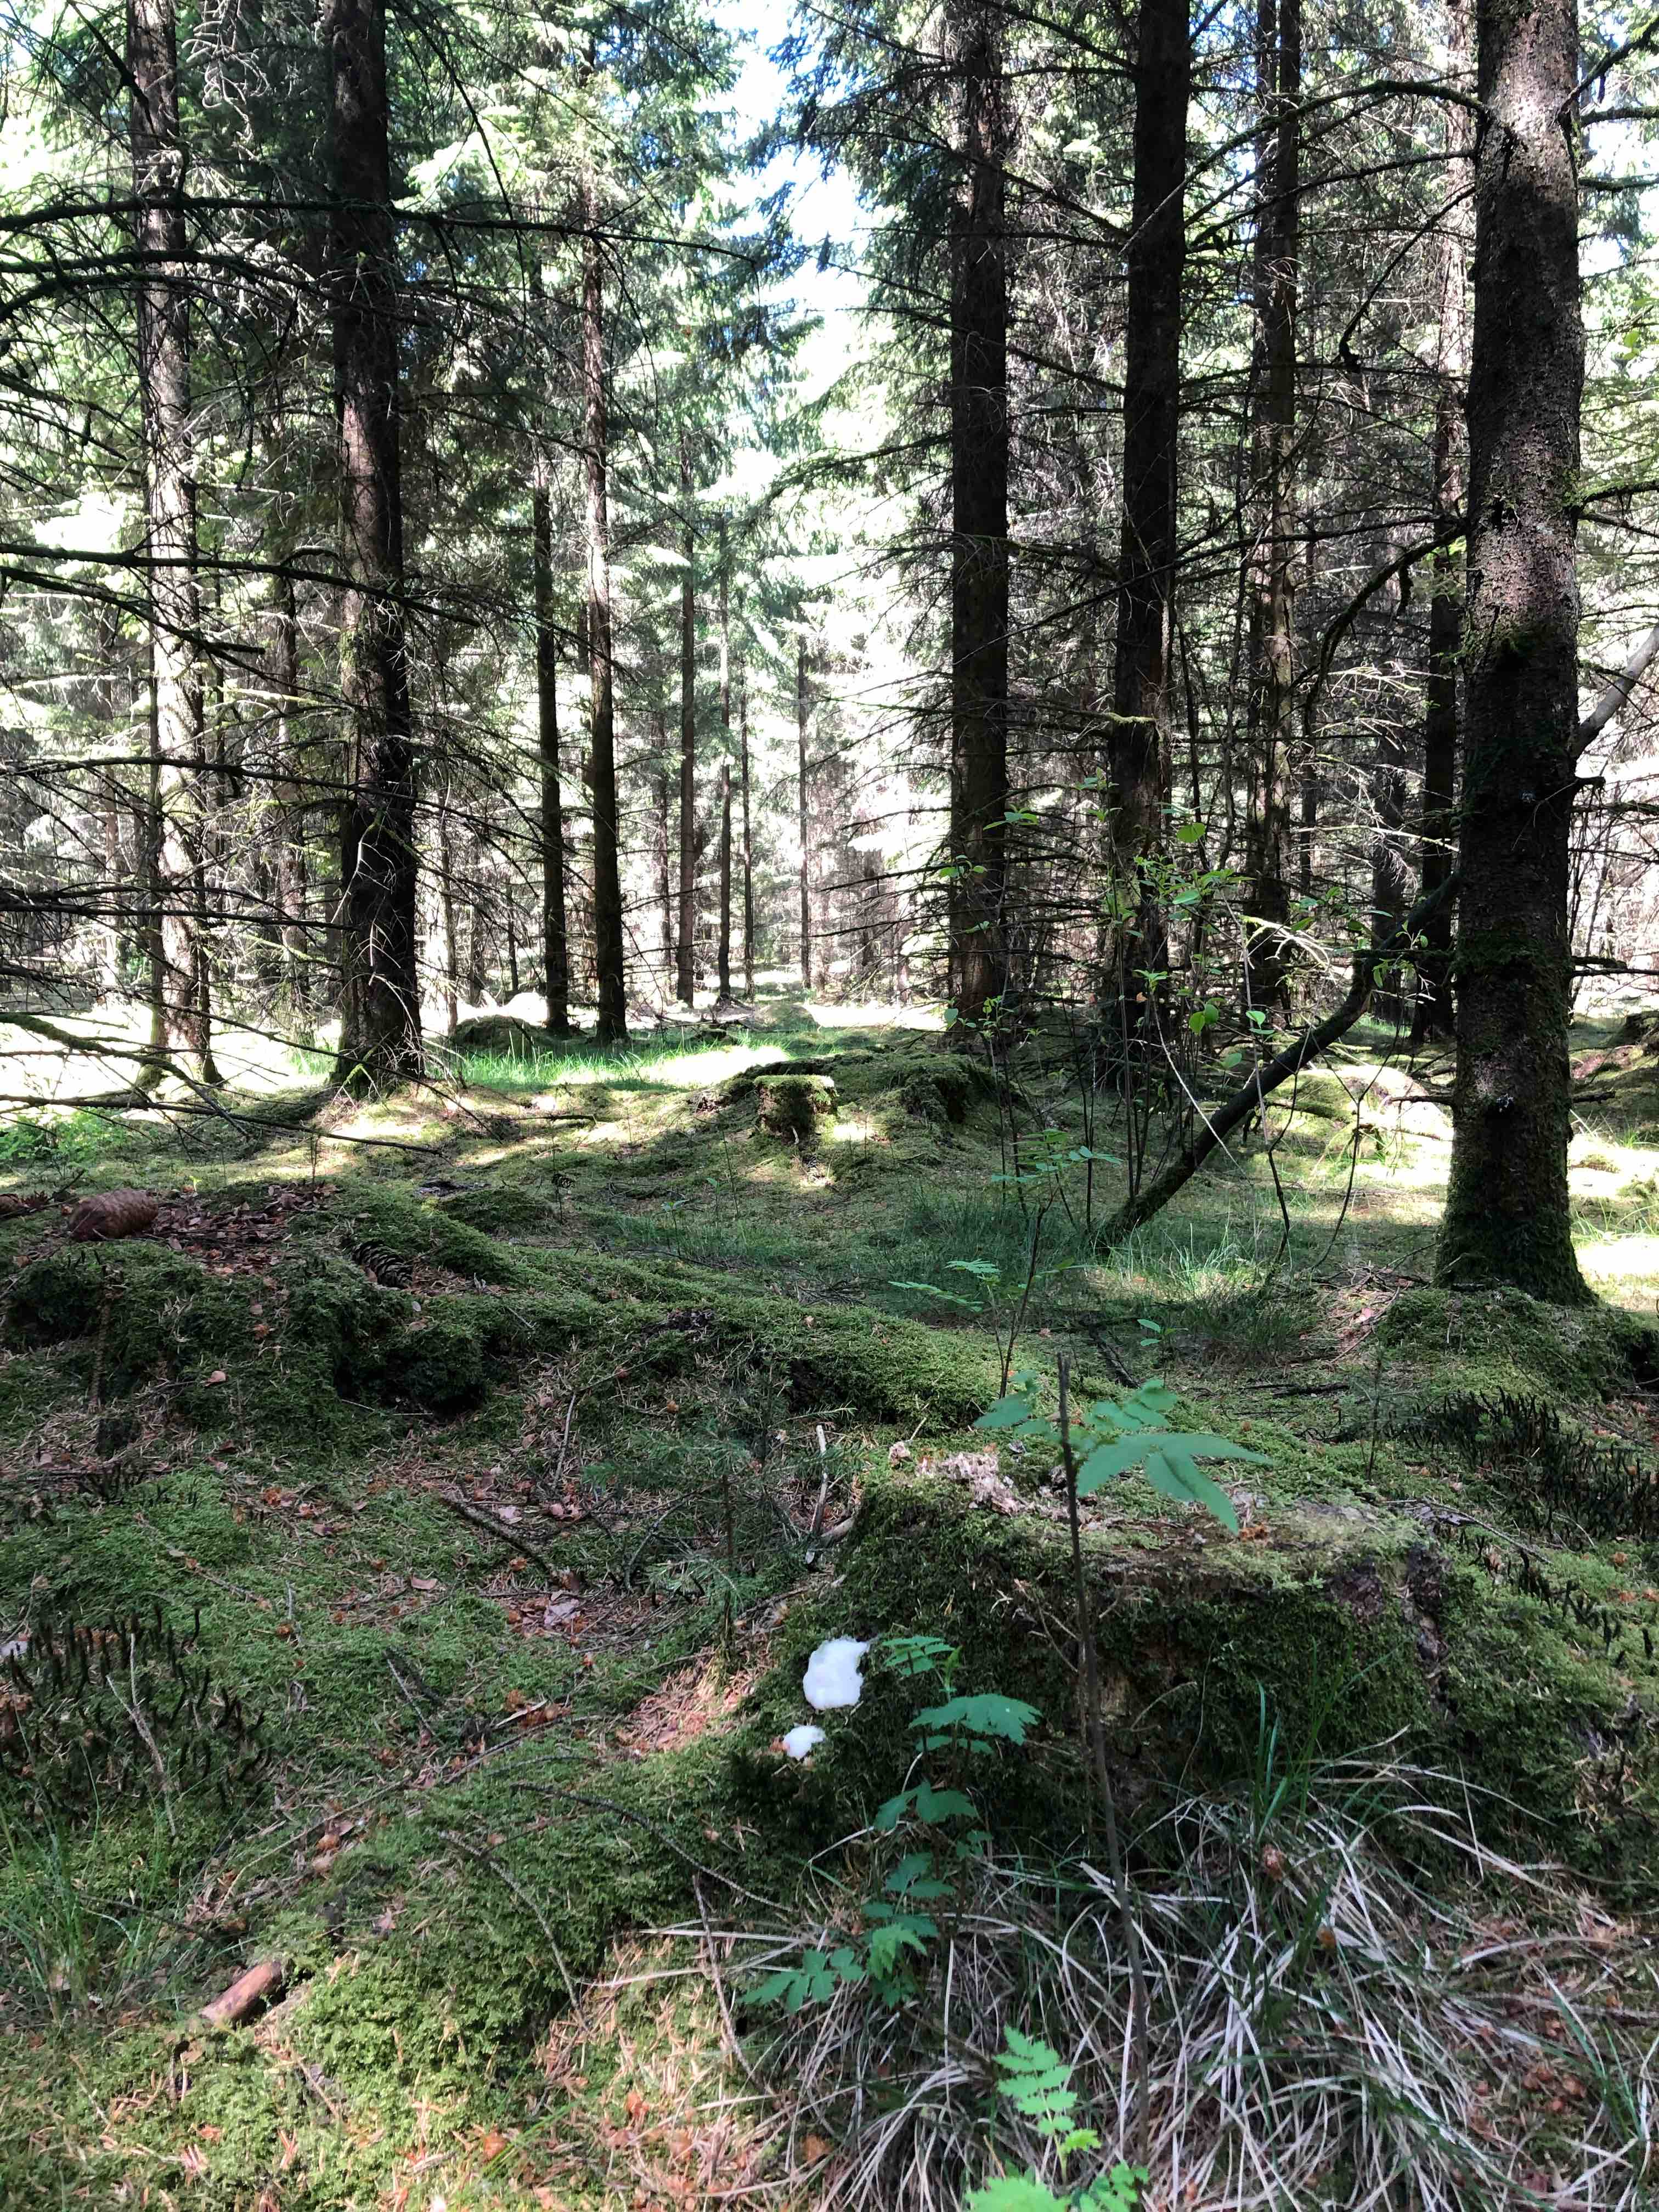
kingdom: Protozoa
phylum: Mycetozoa
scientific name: Mycetozoa
